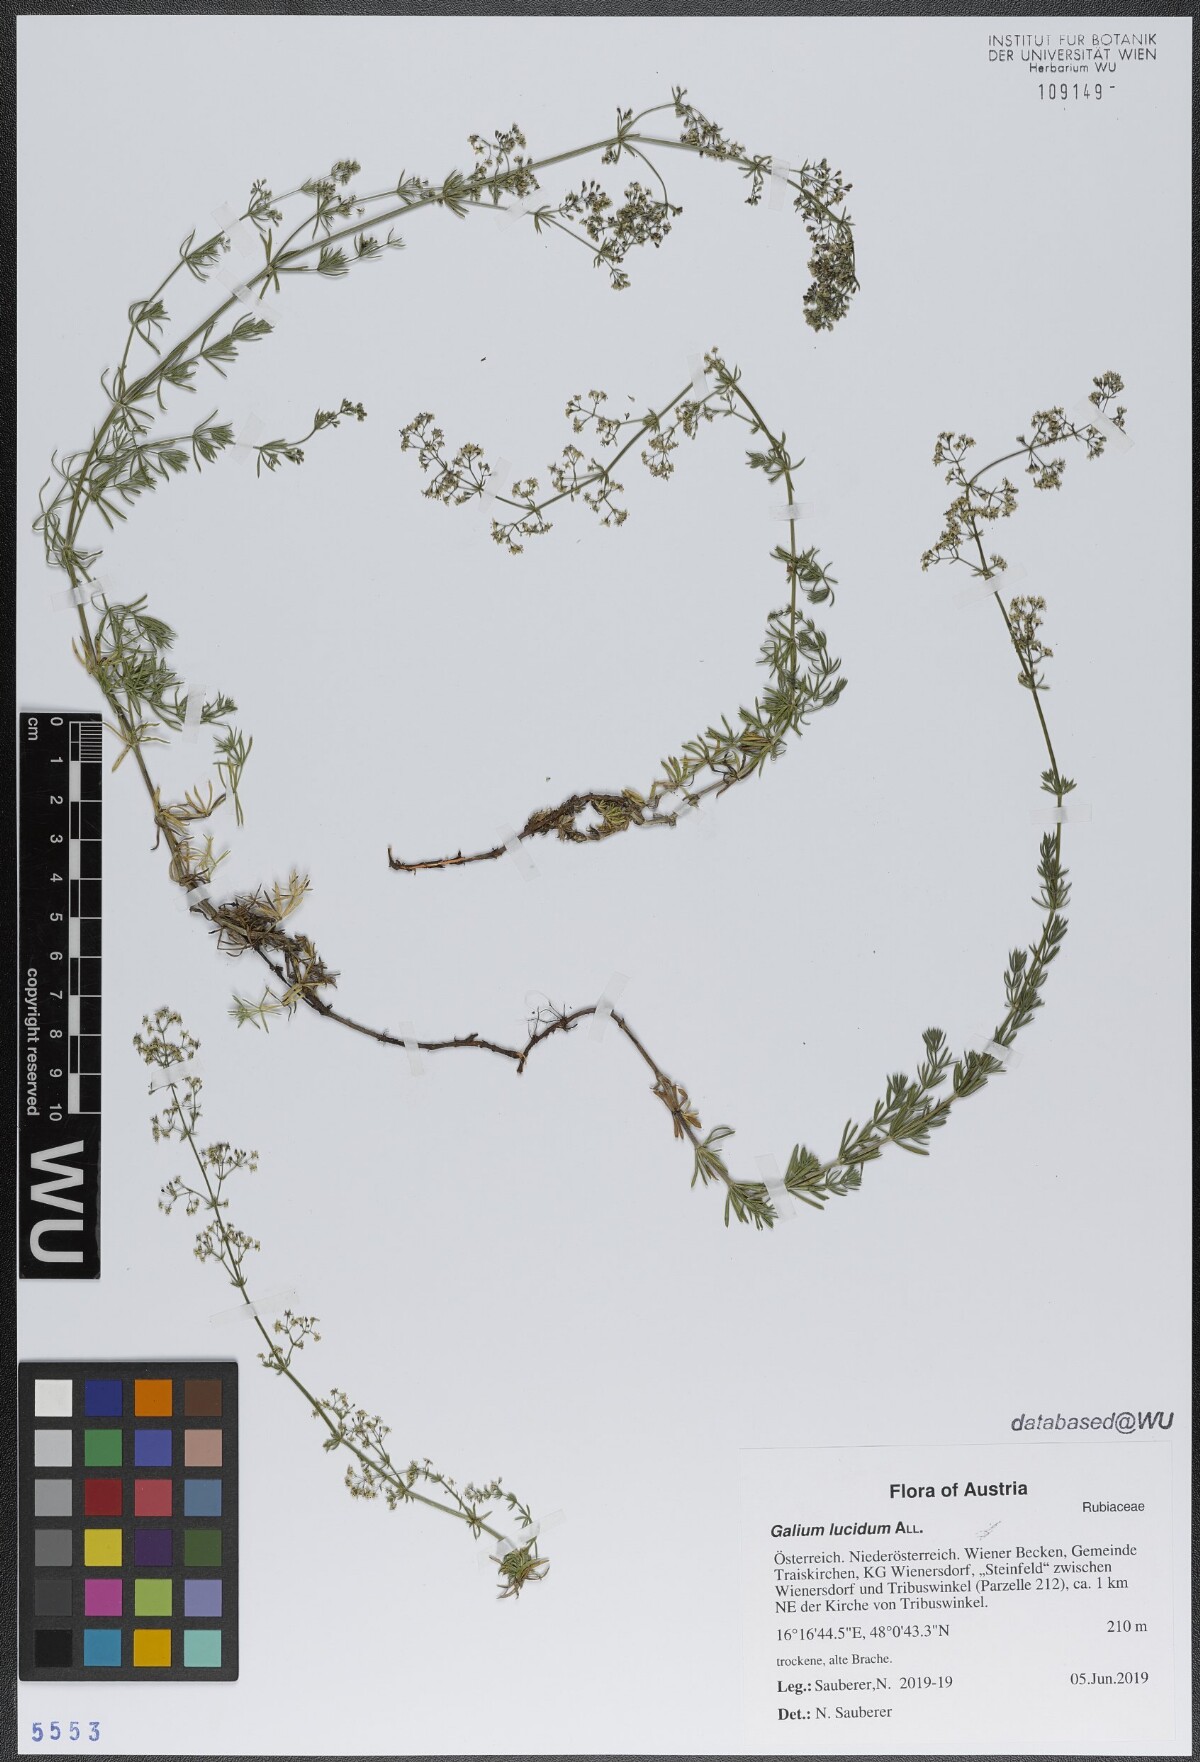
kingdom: Plantae
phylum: Tracheophyta
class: Magnoliopsida
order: Gentianales
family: Rubiaceae
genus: Galium
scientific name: Galium lucidum
